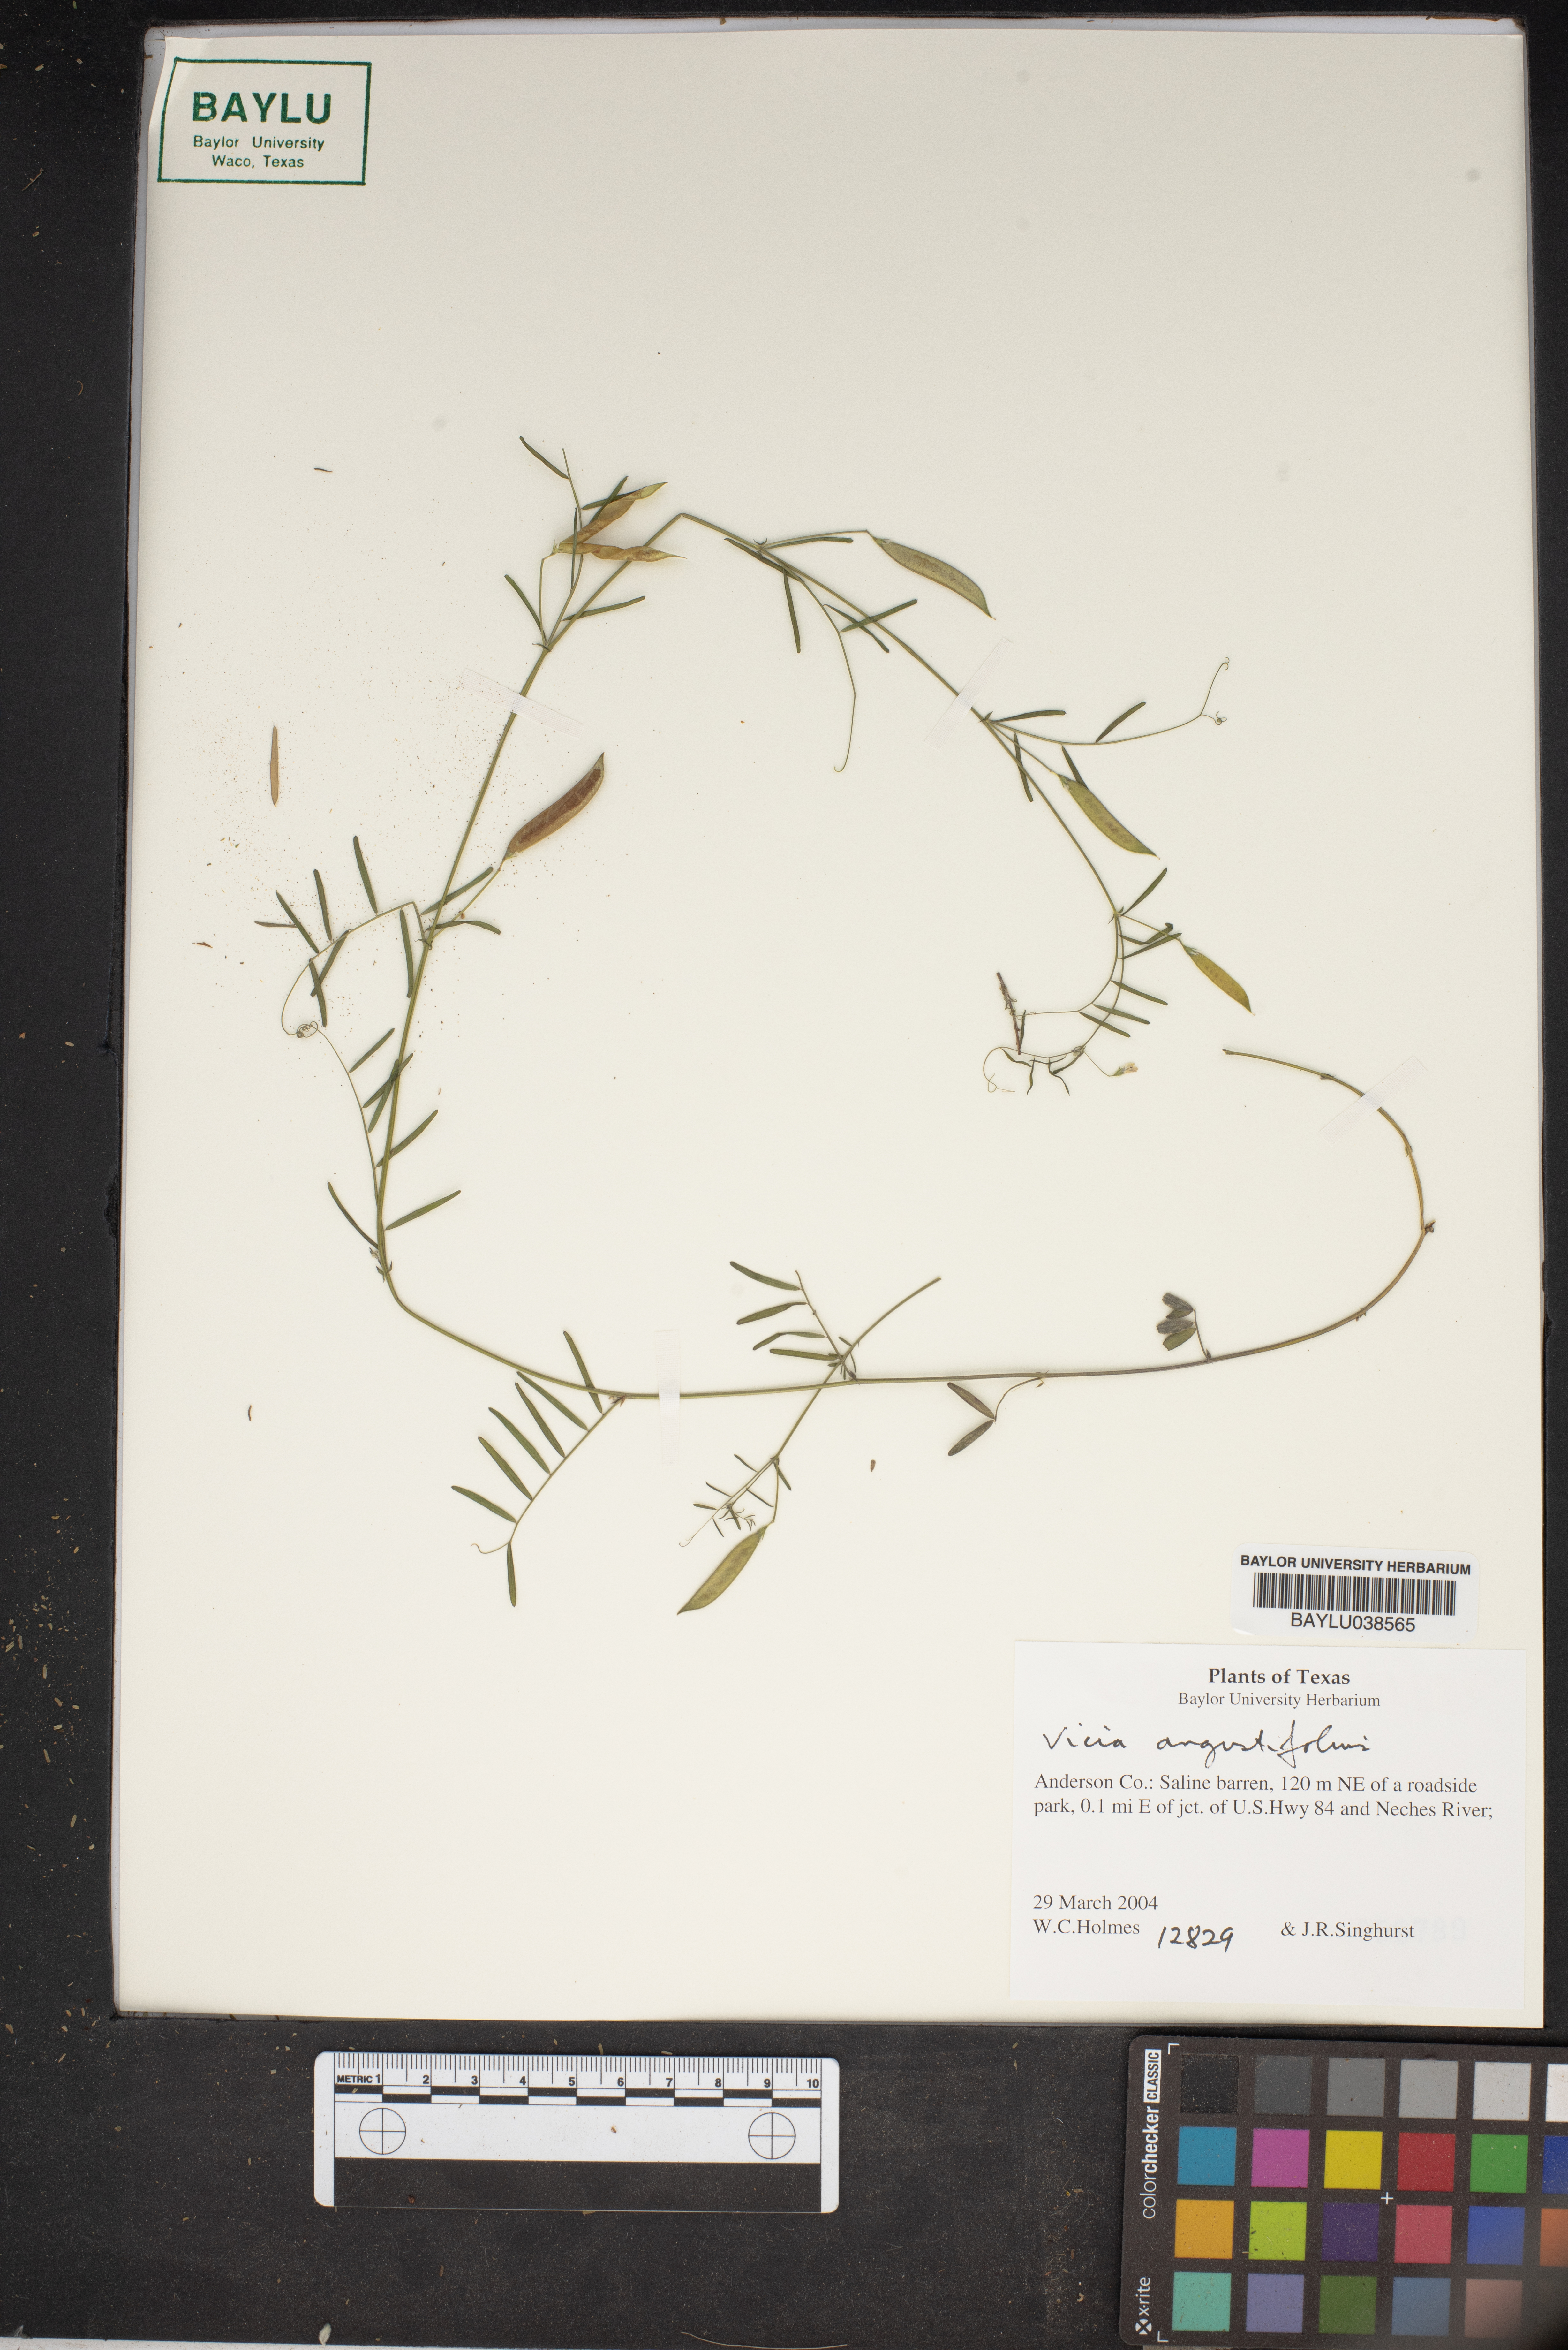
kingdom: Plantae
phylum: Tracheophyta
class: Magnoliopsida
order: Fabales
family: Fabaceae
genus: Vicia
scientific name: Vicia sativa
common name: Garden vetch
